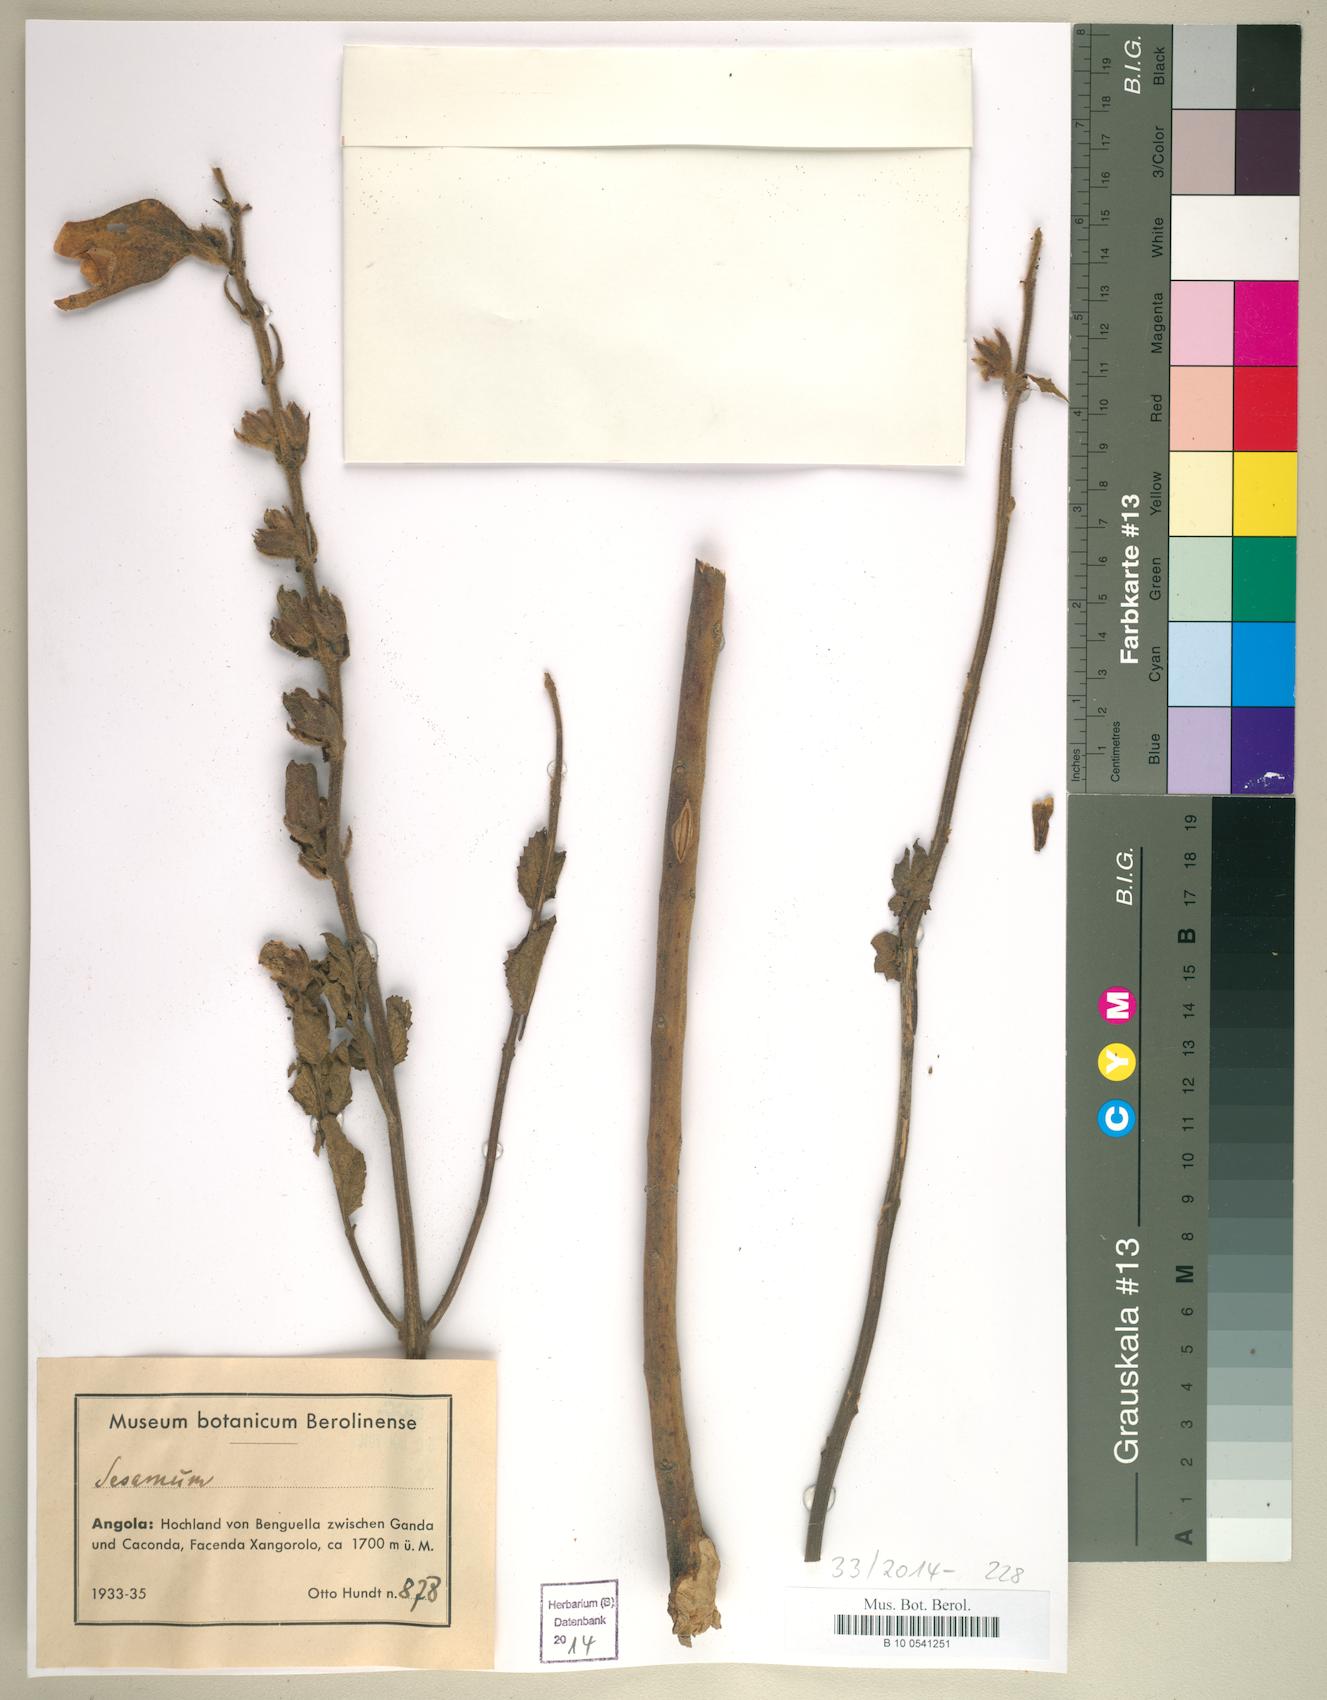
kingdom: Plantae
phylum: Tracheophyta
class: Magnoliopsida
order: Lamiales
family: Pedaliaceae
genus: Sesamum
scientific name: Sesamum
